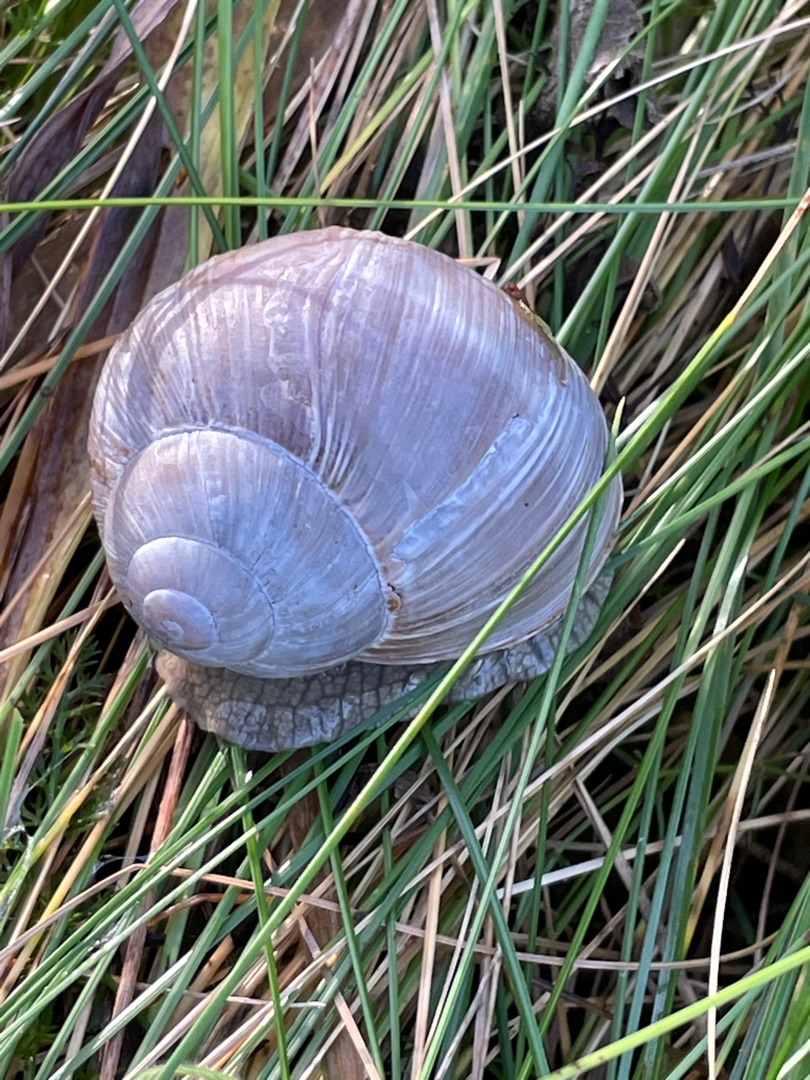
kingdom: Animalia
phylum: Mollusca
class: Gastropoda
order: Stylommatophora
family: Helicidae
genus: Helix
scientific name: Helix pomatia
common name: Vinbjergsnegl
